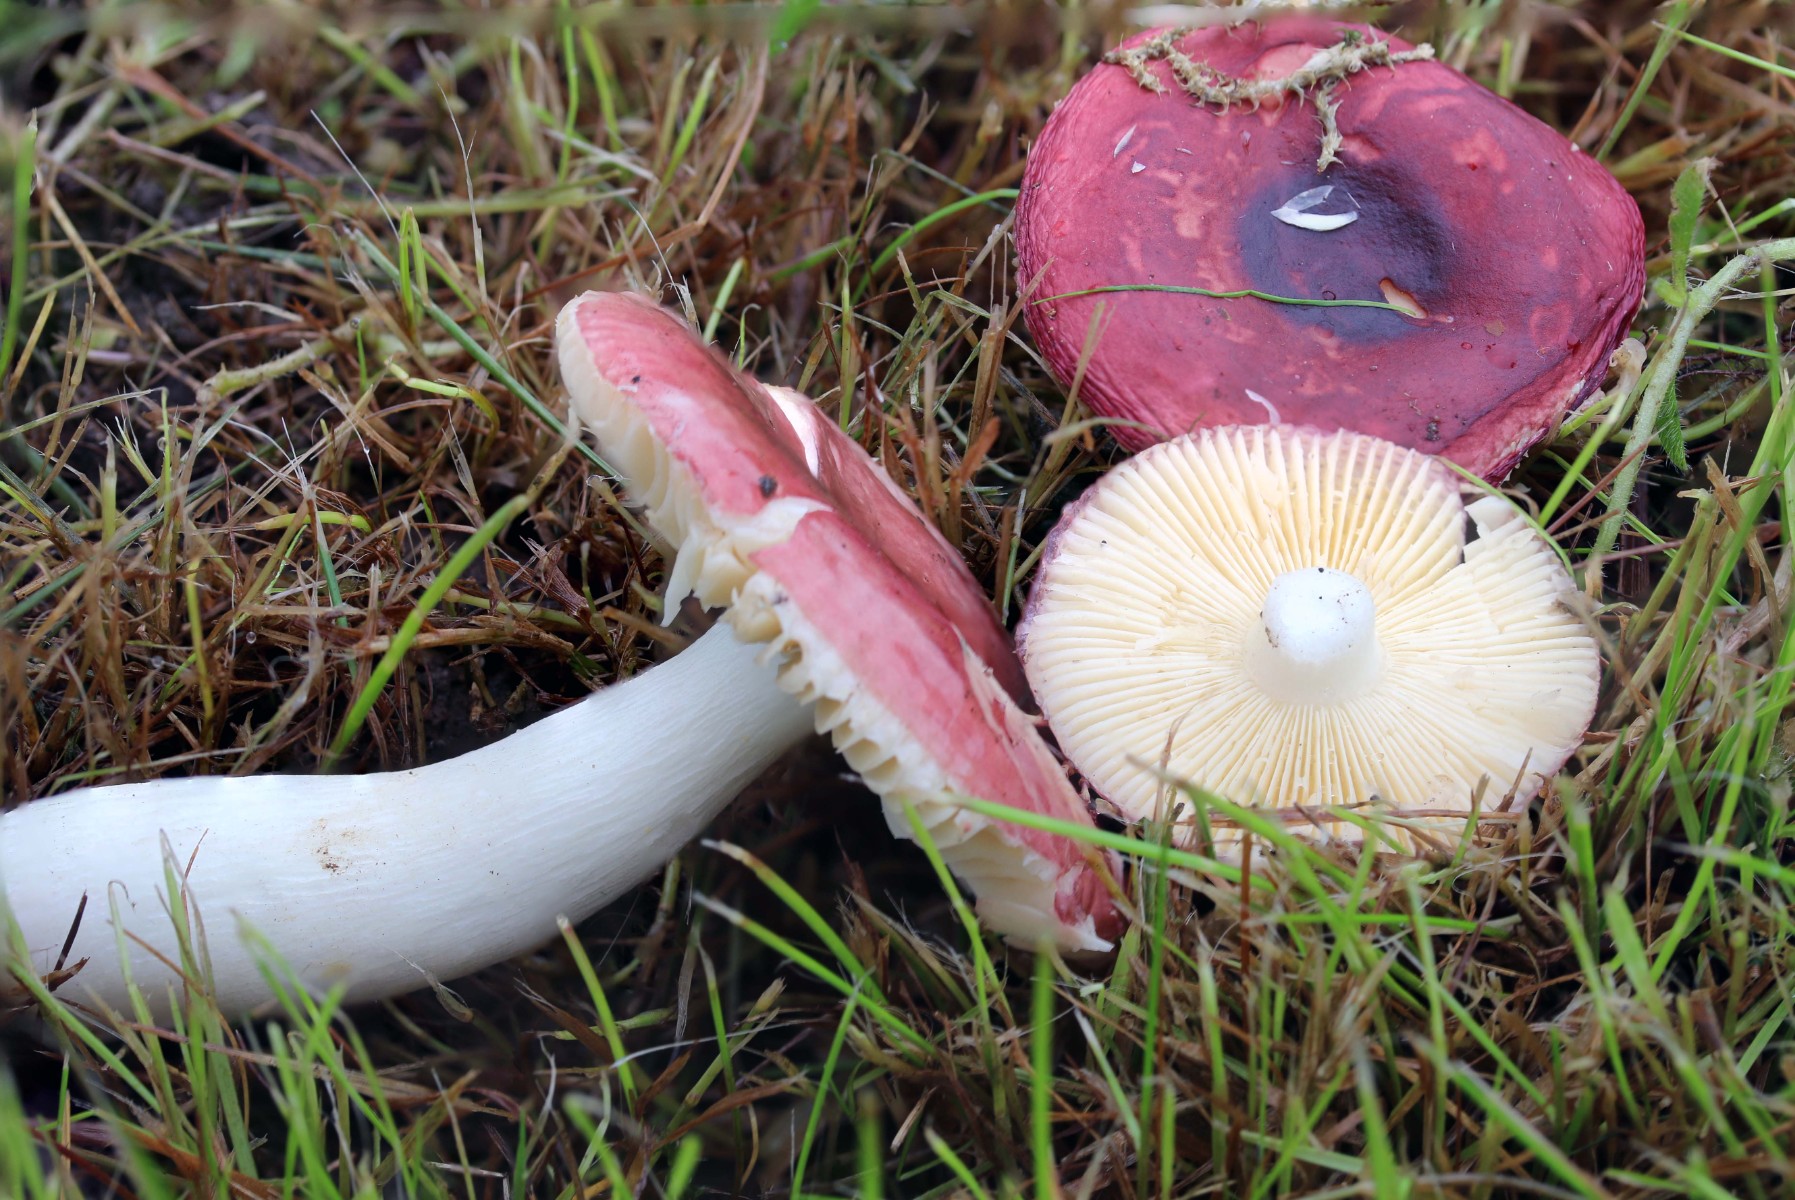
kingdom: Fungi
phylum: Basidiomycota
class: Agaricomycetes
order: Russulales
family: Russulaceae
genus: Russula
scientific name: Russula cessans
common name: fyrre-skørhat
